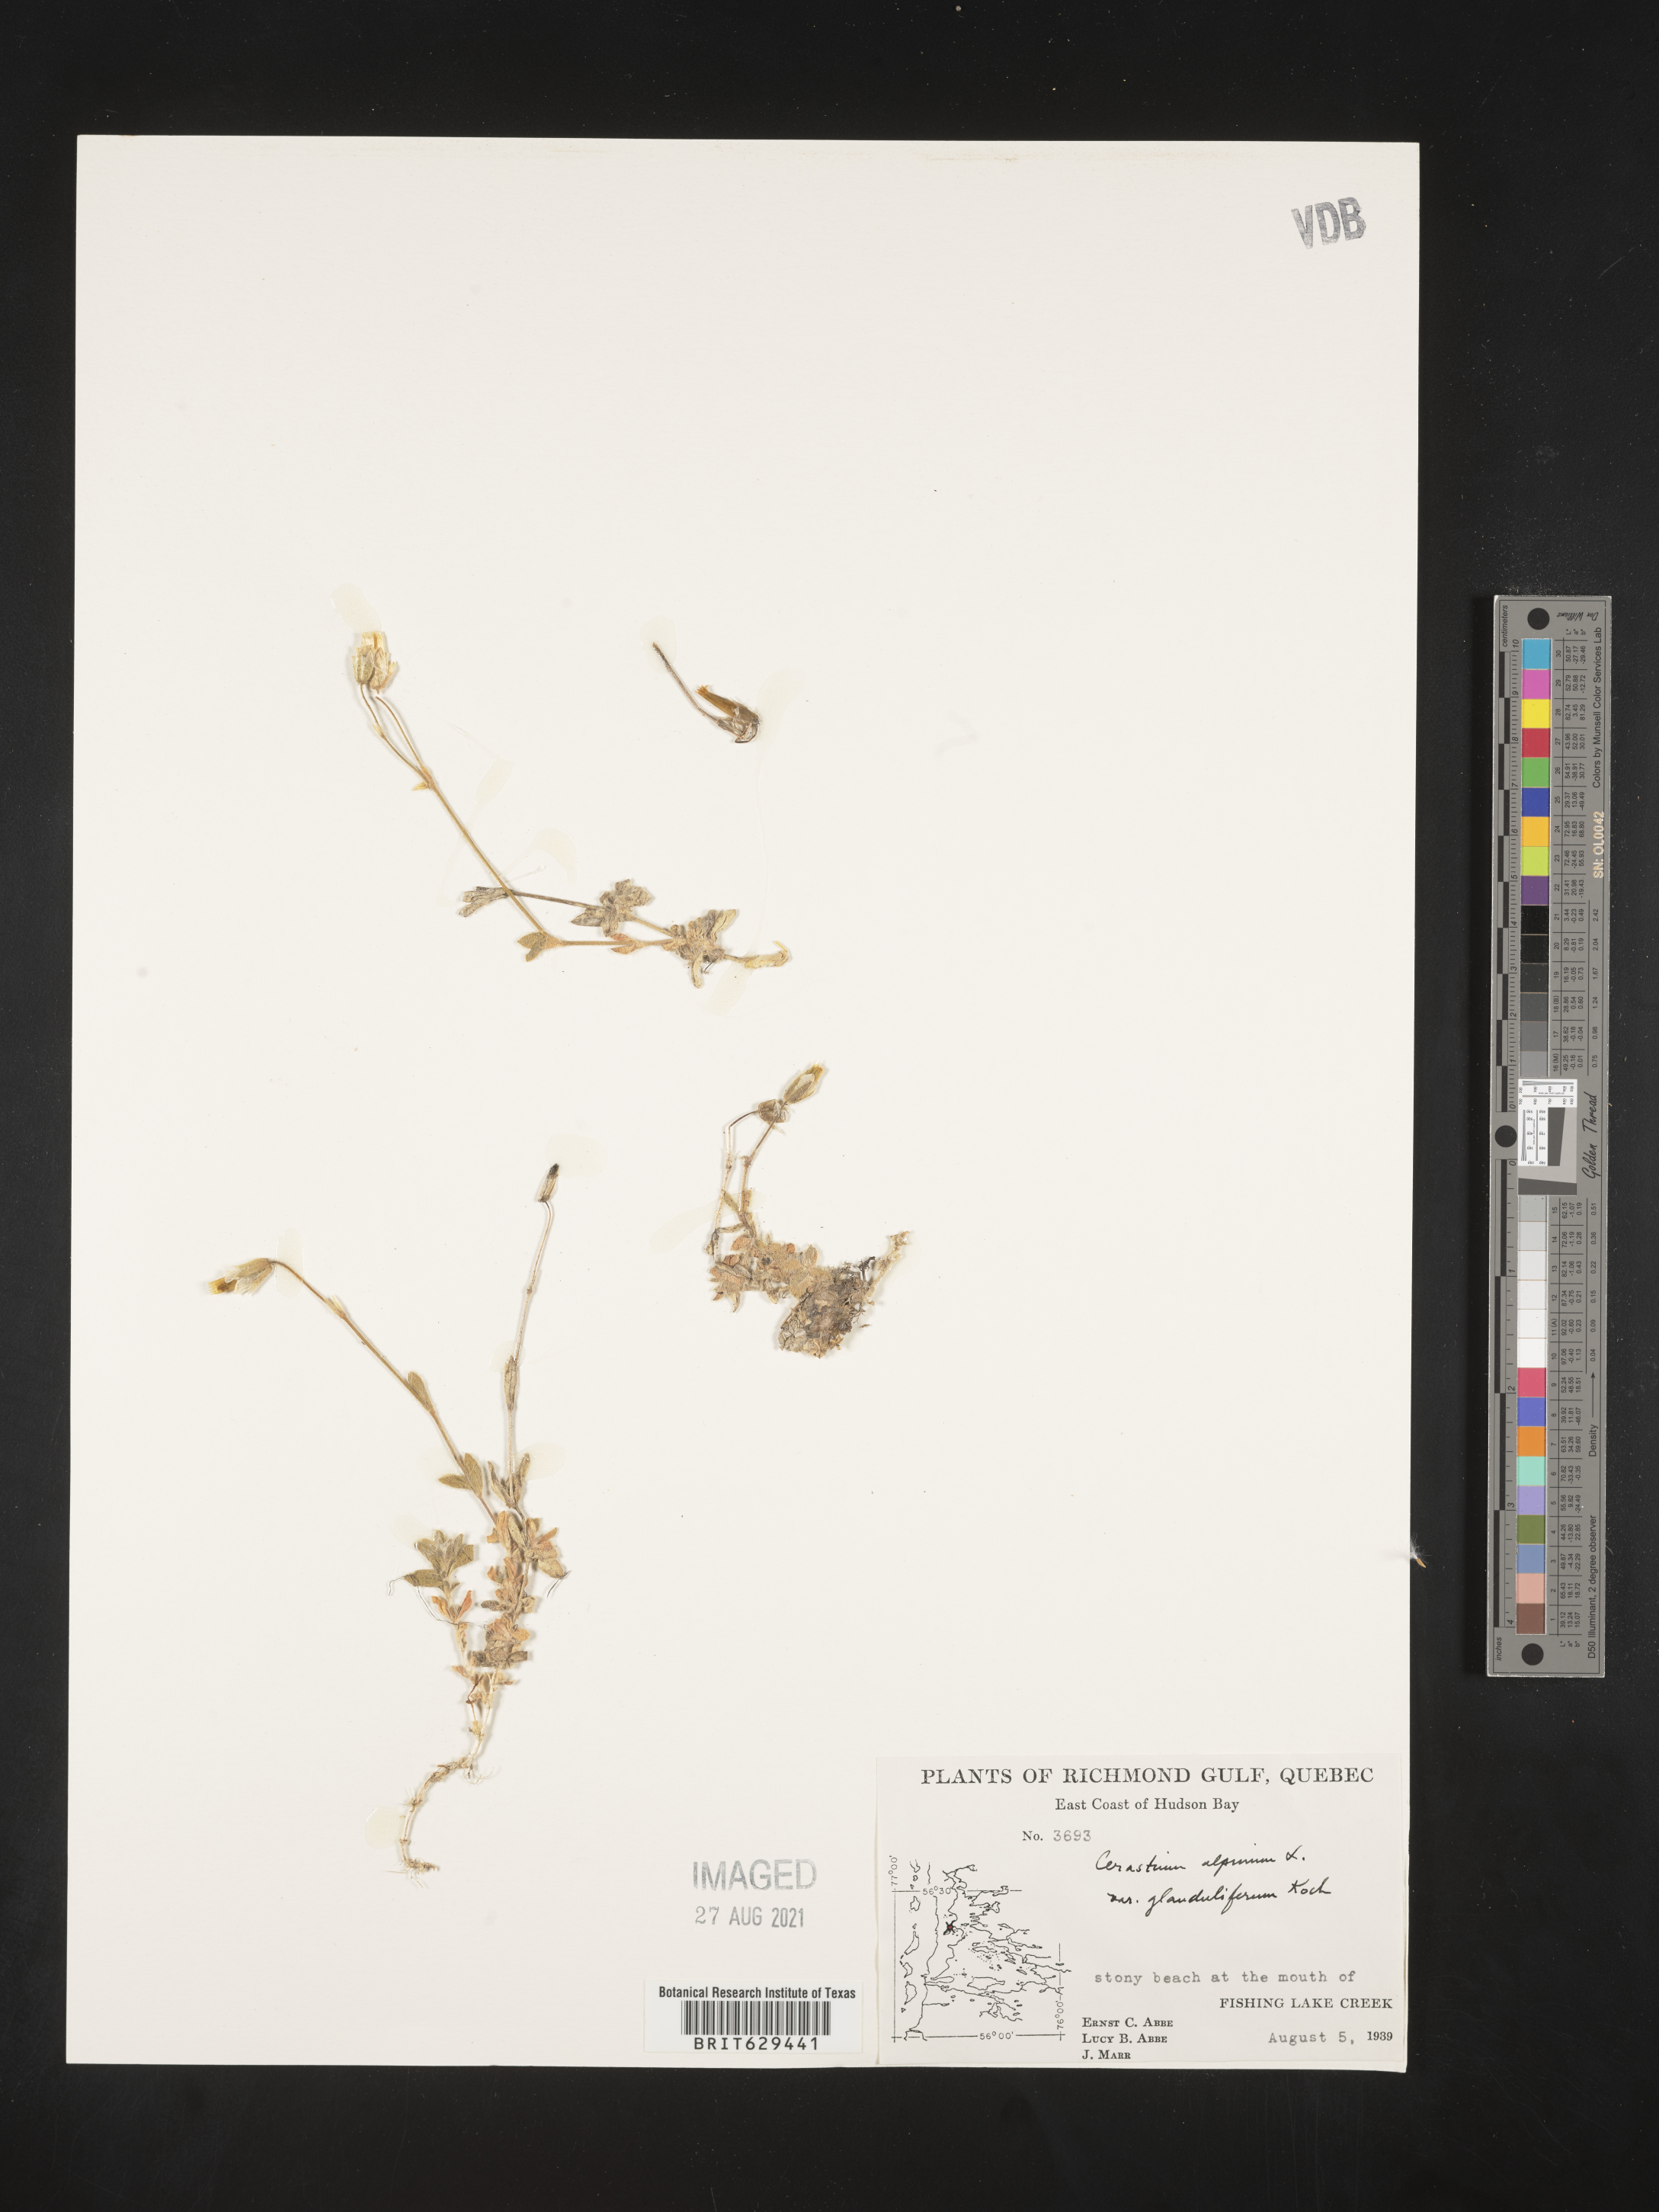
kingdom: Plantae
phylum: Tracheophyta
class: Magnoliopsida
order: Caryophyllales
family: Caryophyllaceae
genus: Cerastium
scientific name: Cerastium alpinum
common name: Alpine mouse-ear
